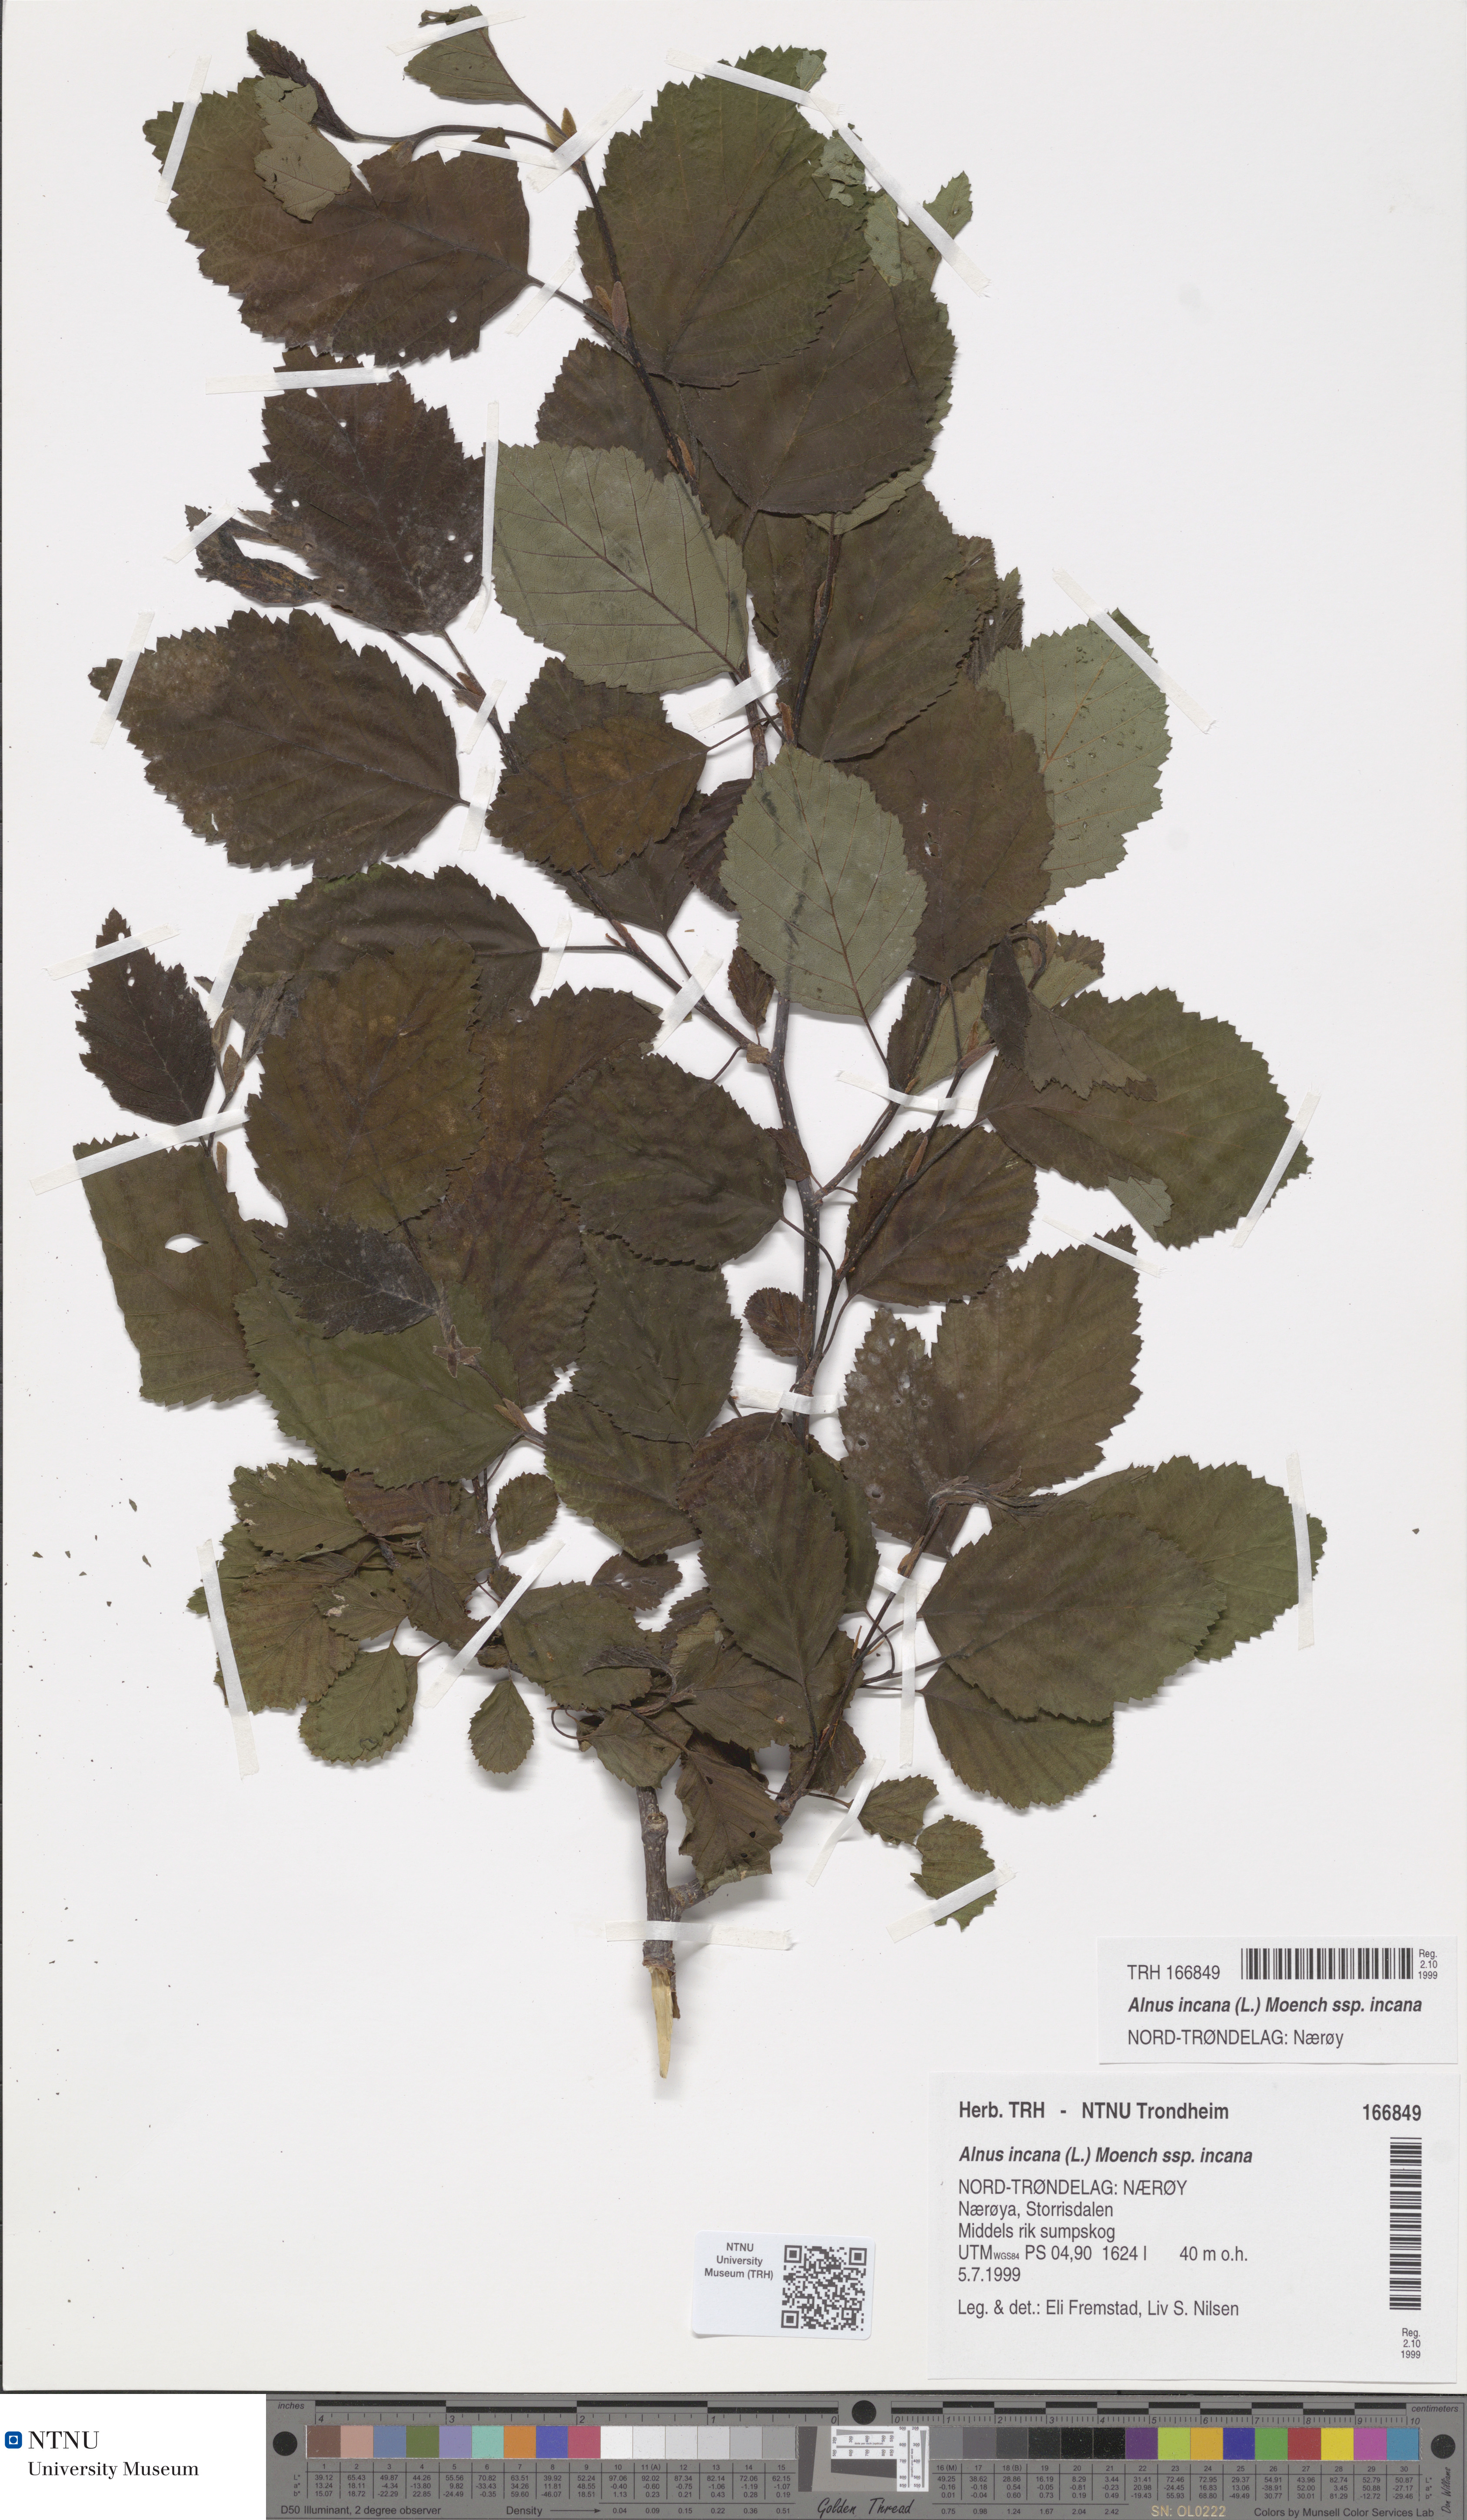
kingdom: Plantae
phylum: Tracheophyta
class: Magnoliopsida
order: Fagales
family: Betulaceae
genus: Alnus
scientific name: Alnus incana
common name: Grey alder
